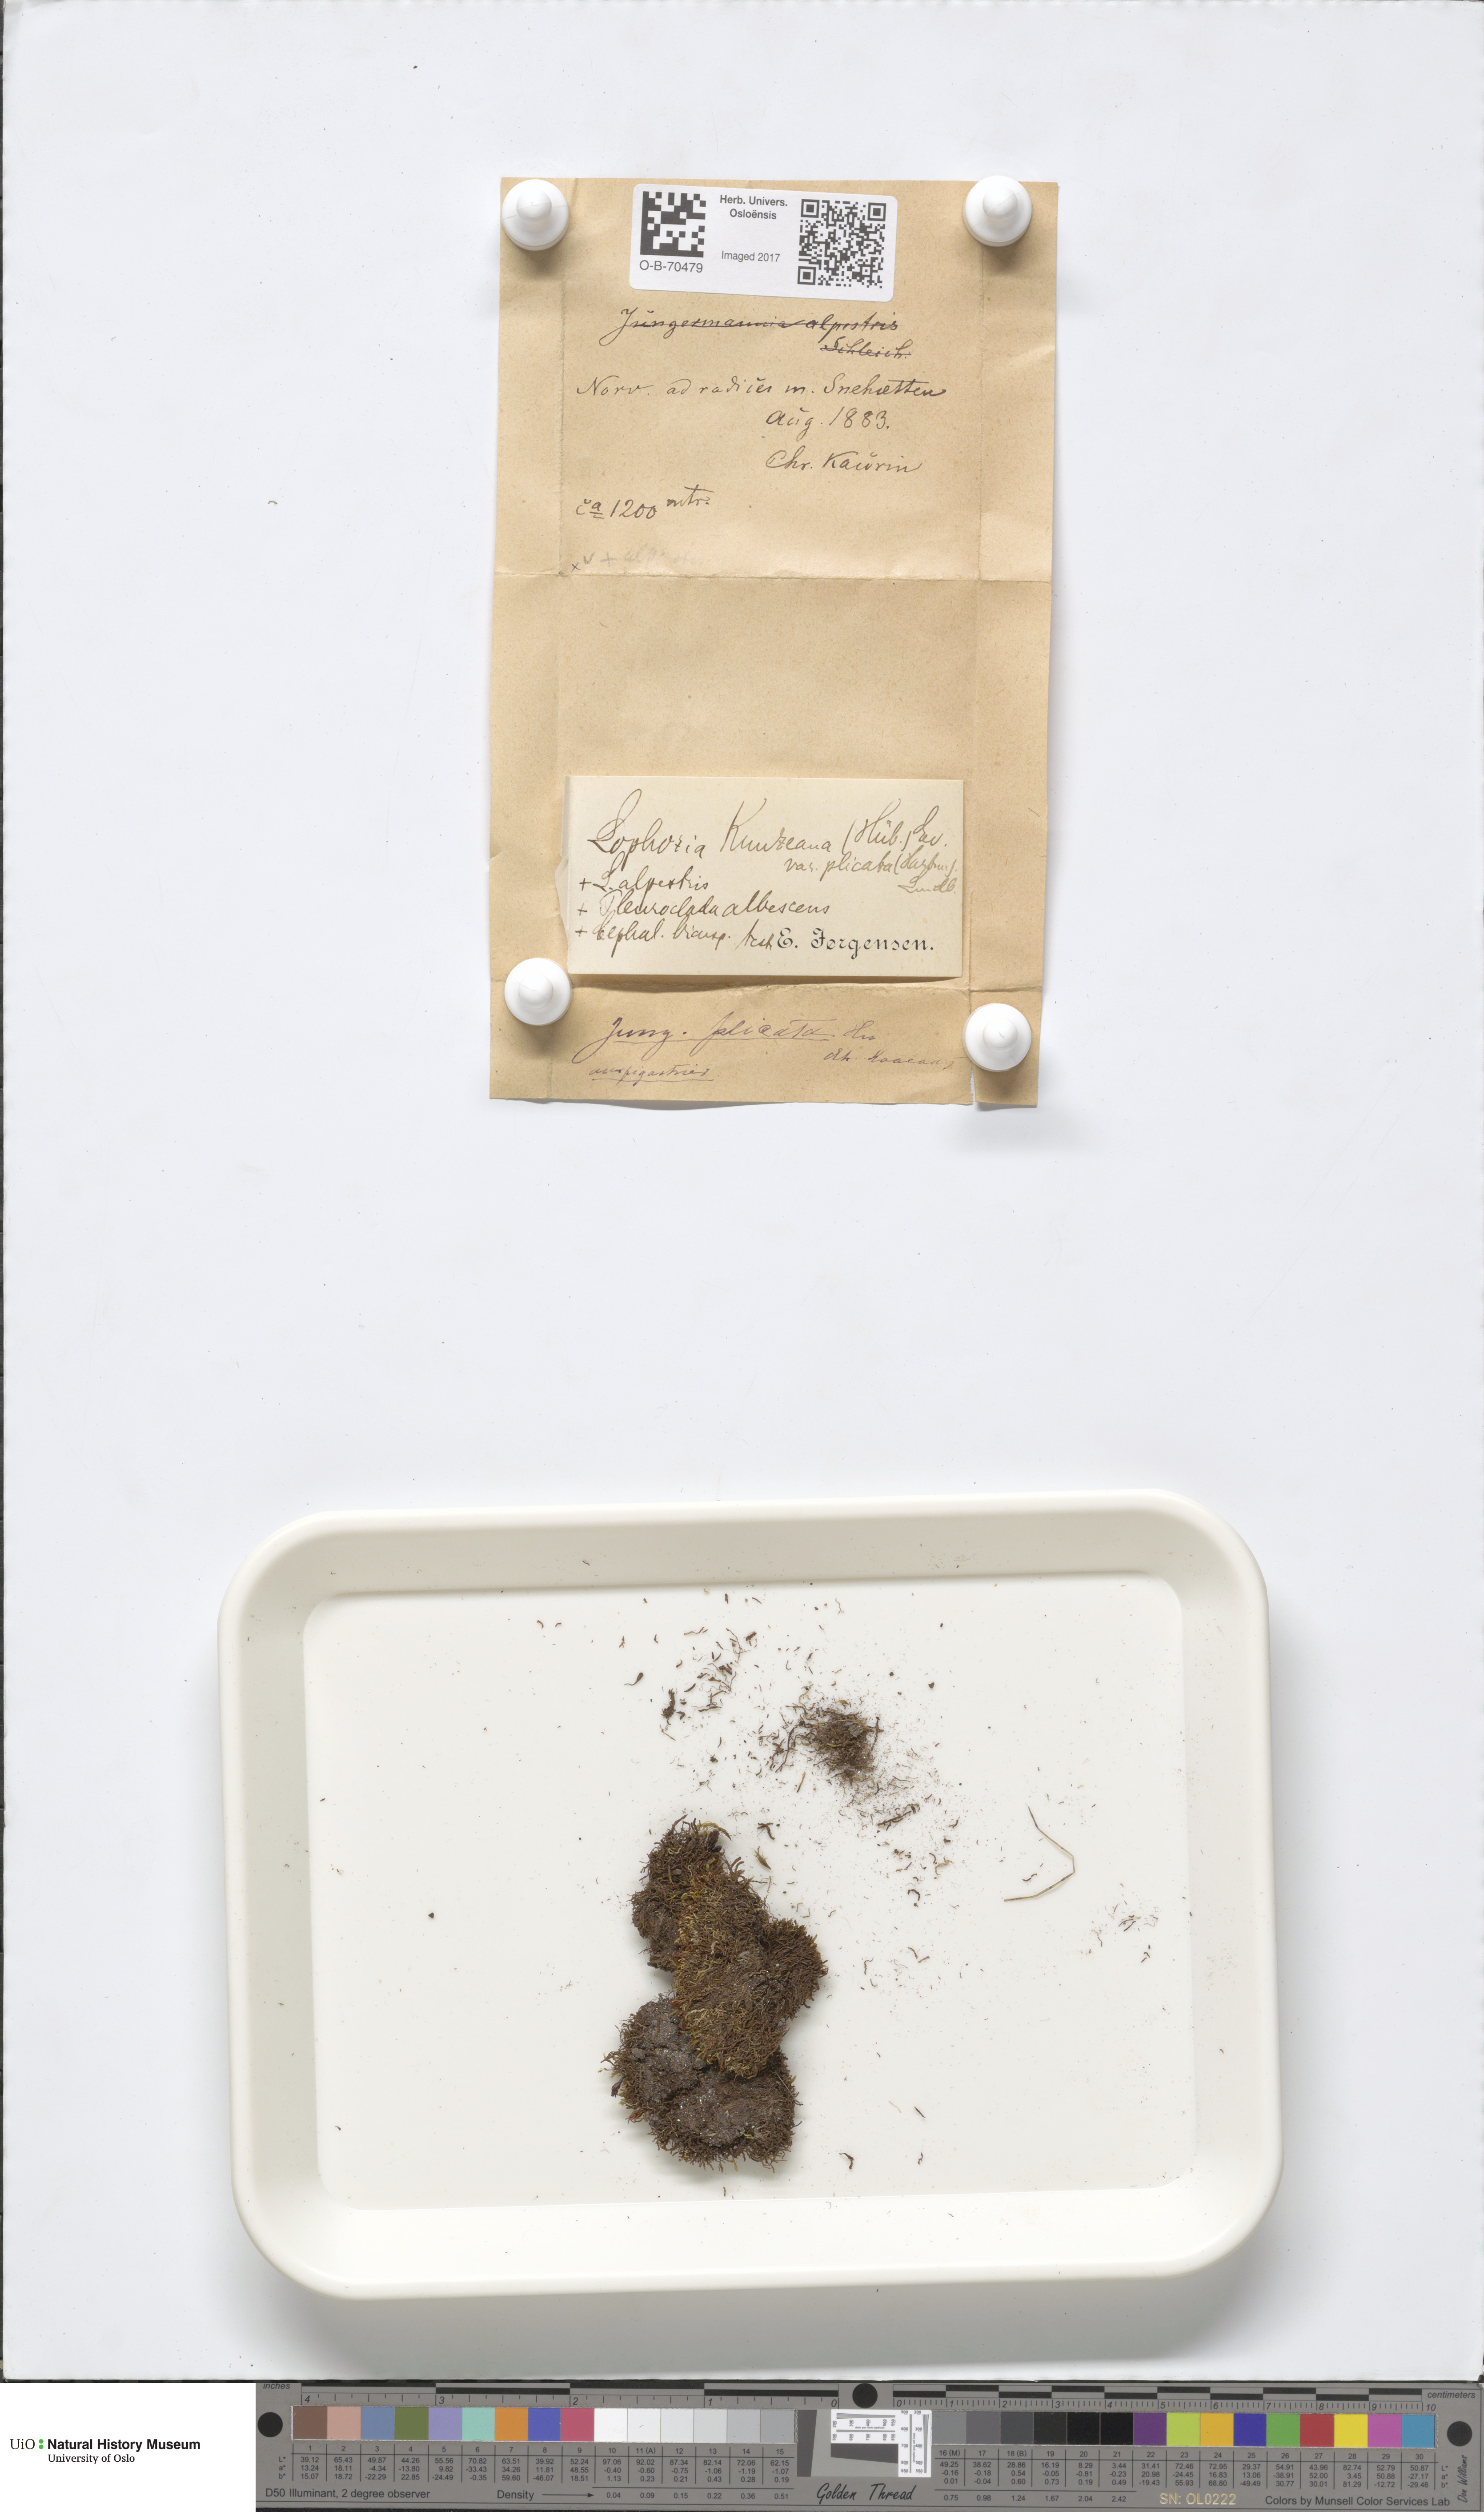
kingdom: Plantae
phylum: Marchantiophyta
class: Jungermanniopsida
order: Jungermanniales
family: Anastrophyllaceae
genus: Schljakovia
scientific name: Schljakovia kunzeana
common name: Kunze's pawwort
